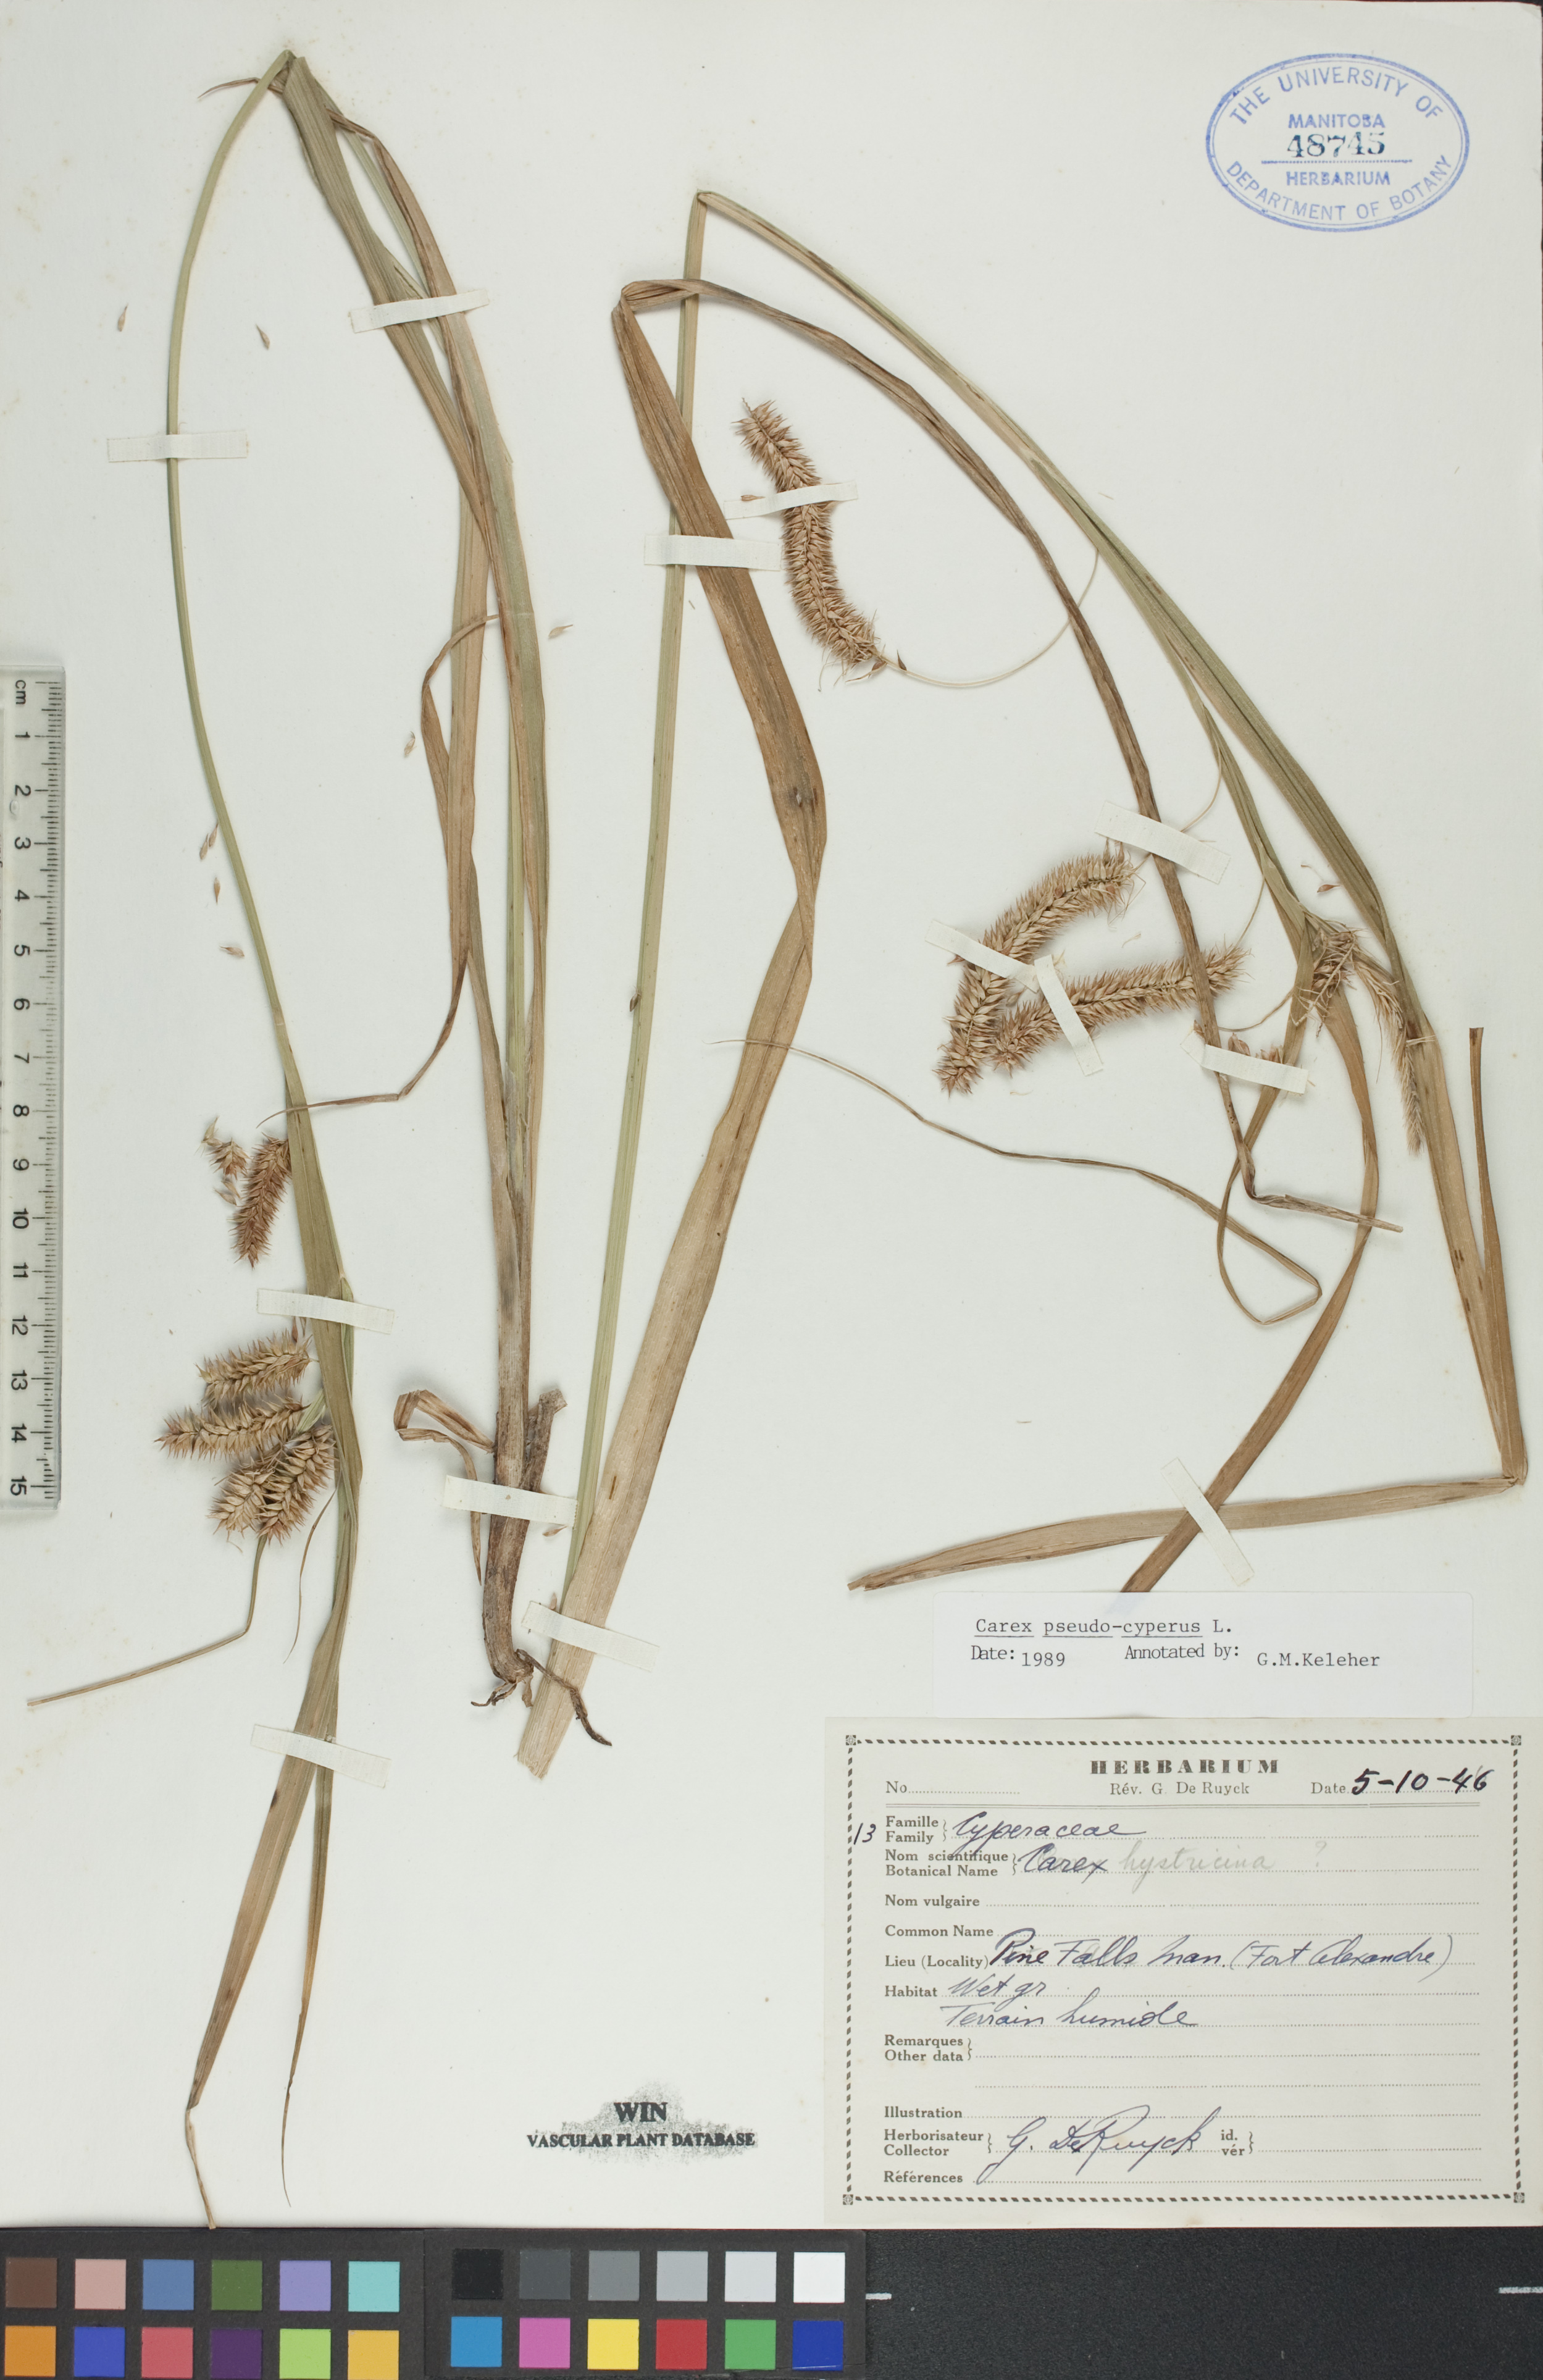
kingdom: Plantae
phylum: Tracheophyta
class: Liliopsida
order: Poales
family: Cyperaceae
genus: Carex
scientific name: Carex pseudocyperus
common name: Cyperus sedge
